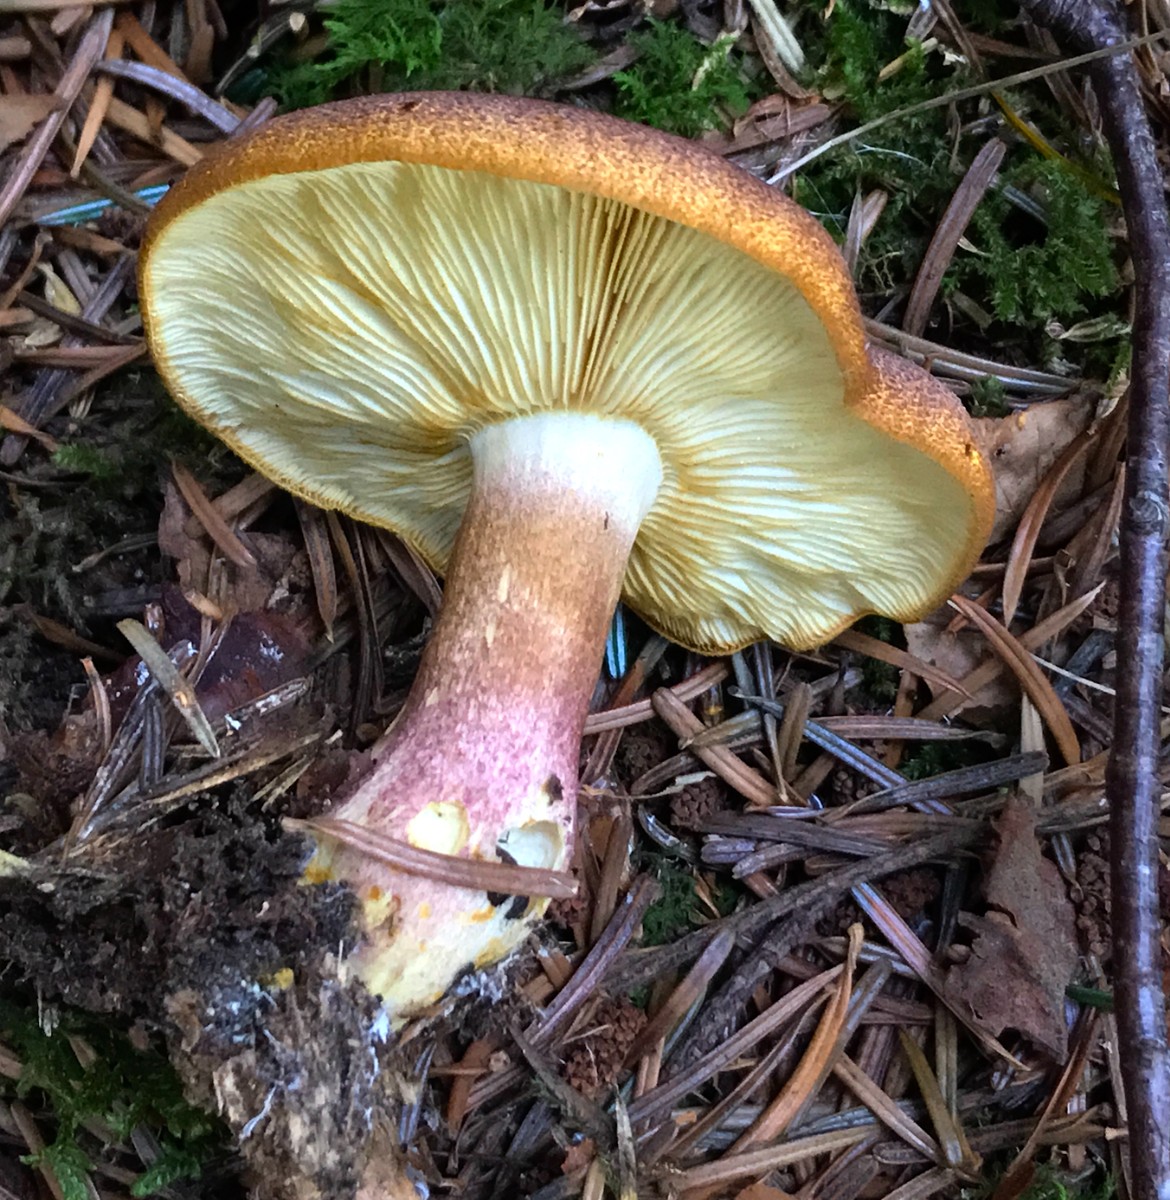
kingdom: Fungi
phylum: Basidiomycota
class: Agaricomycetes
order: Agaricales
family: Tricholomataceae
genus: Tricholomopsis
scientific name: Tricholomopsis rutilans
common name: purpur-væbnerhat
